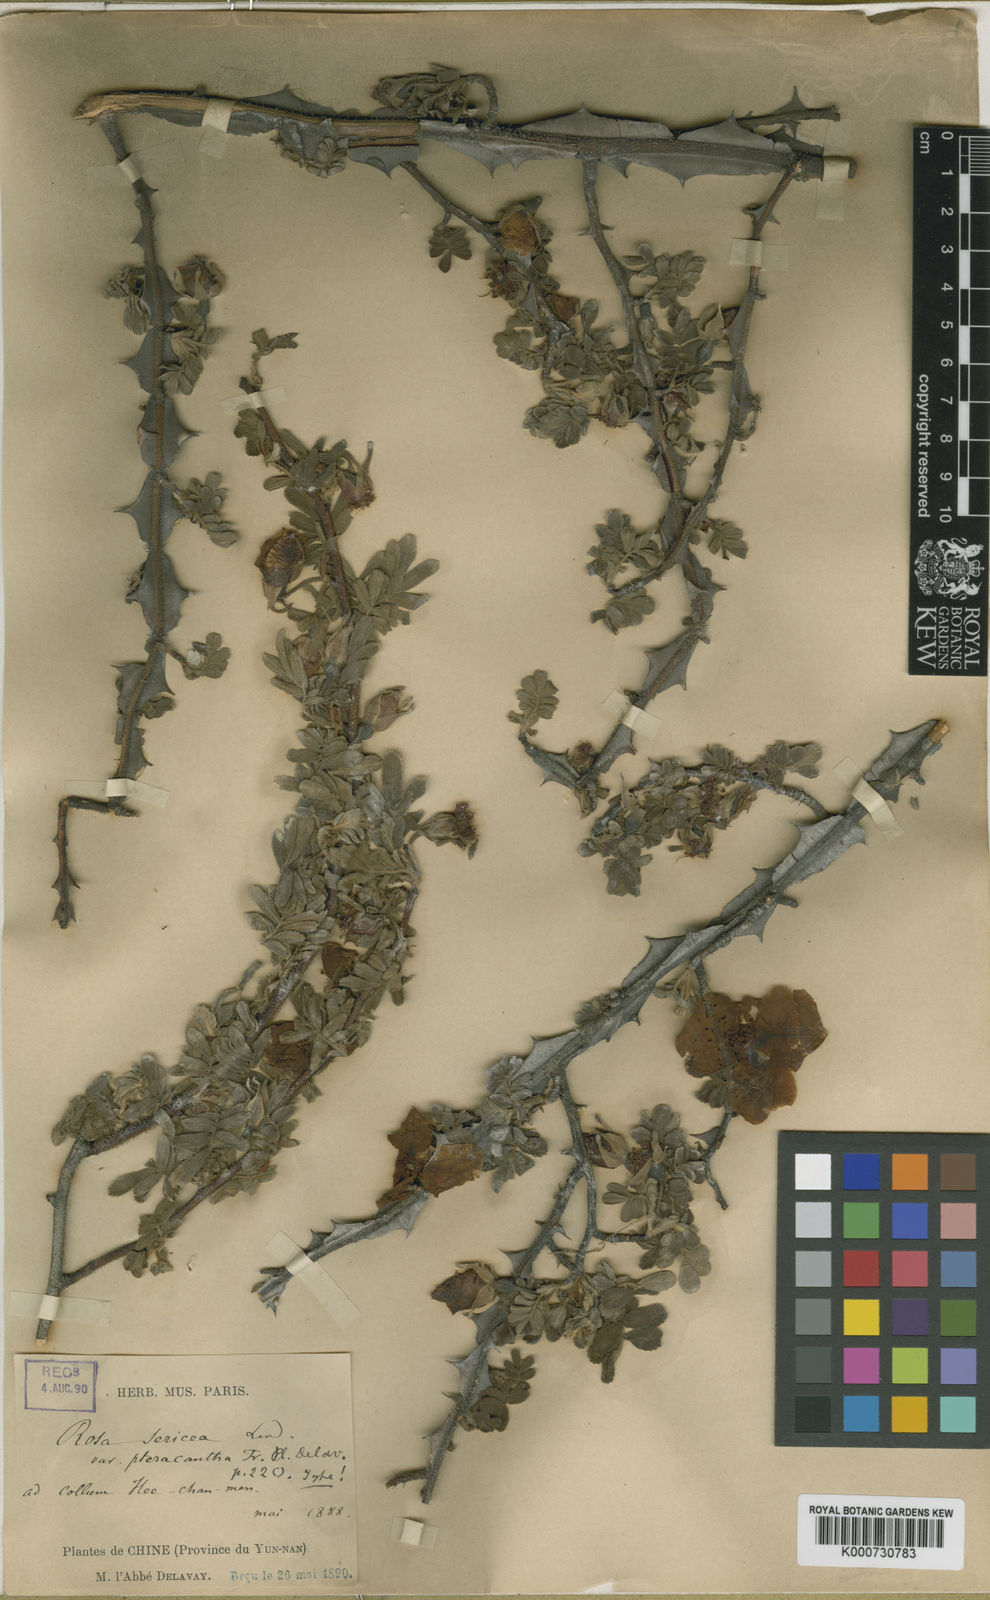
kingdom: Plantae
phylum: Tracheophyta
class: Magnoliopsida
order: Rosales
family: Rosaceae
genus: Rosa
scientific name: Rosa sericea
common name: Silky rose
